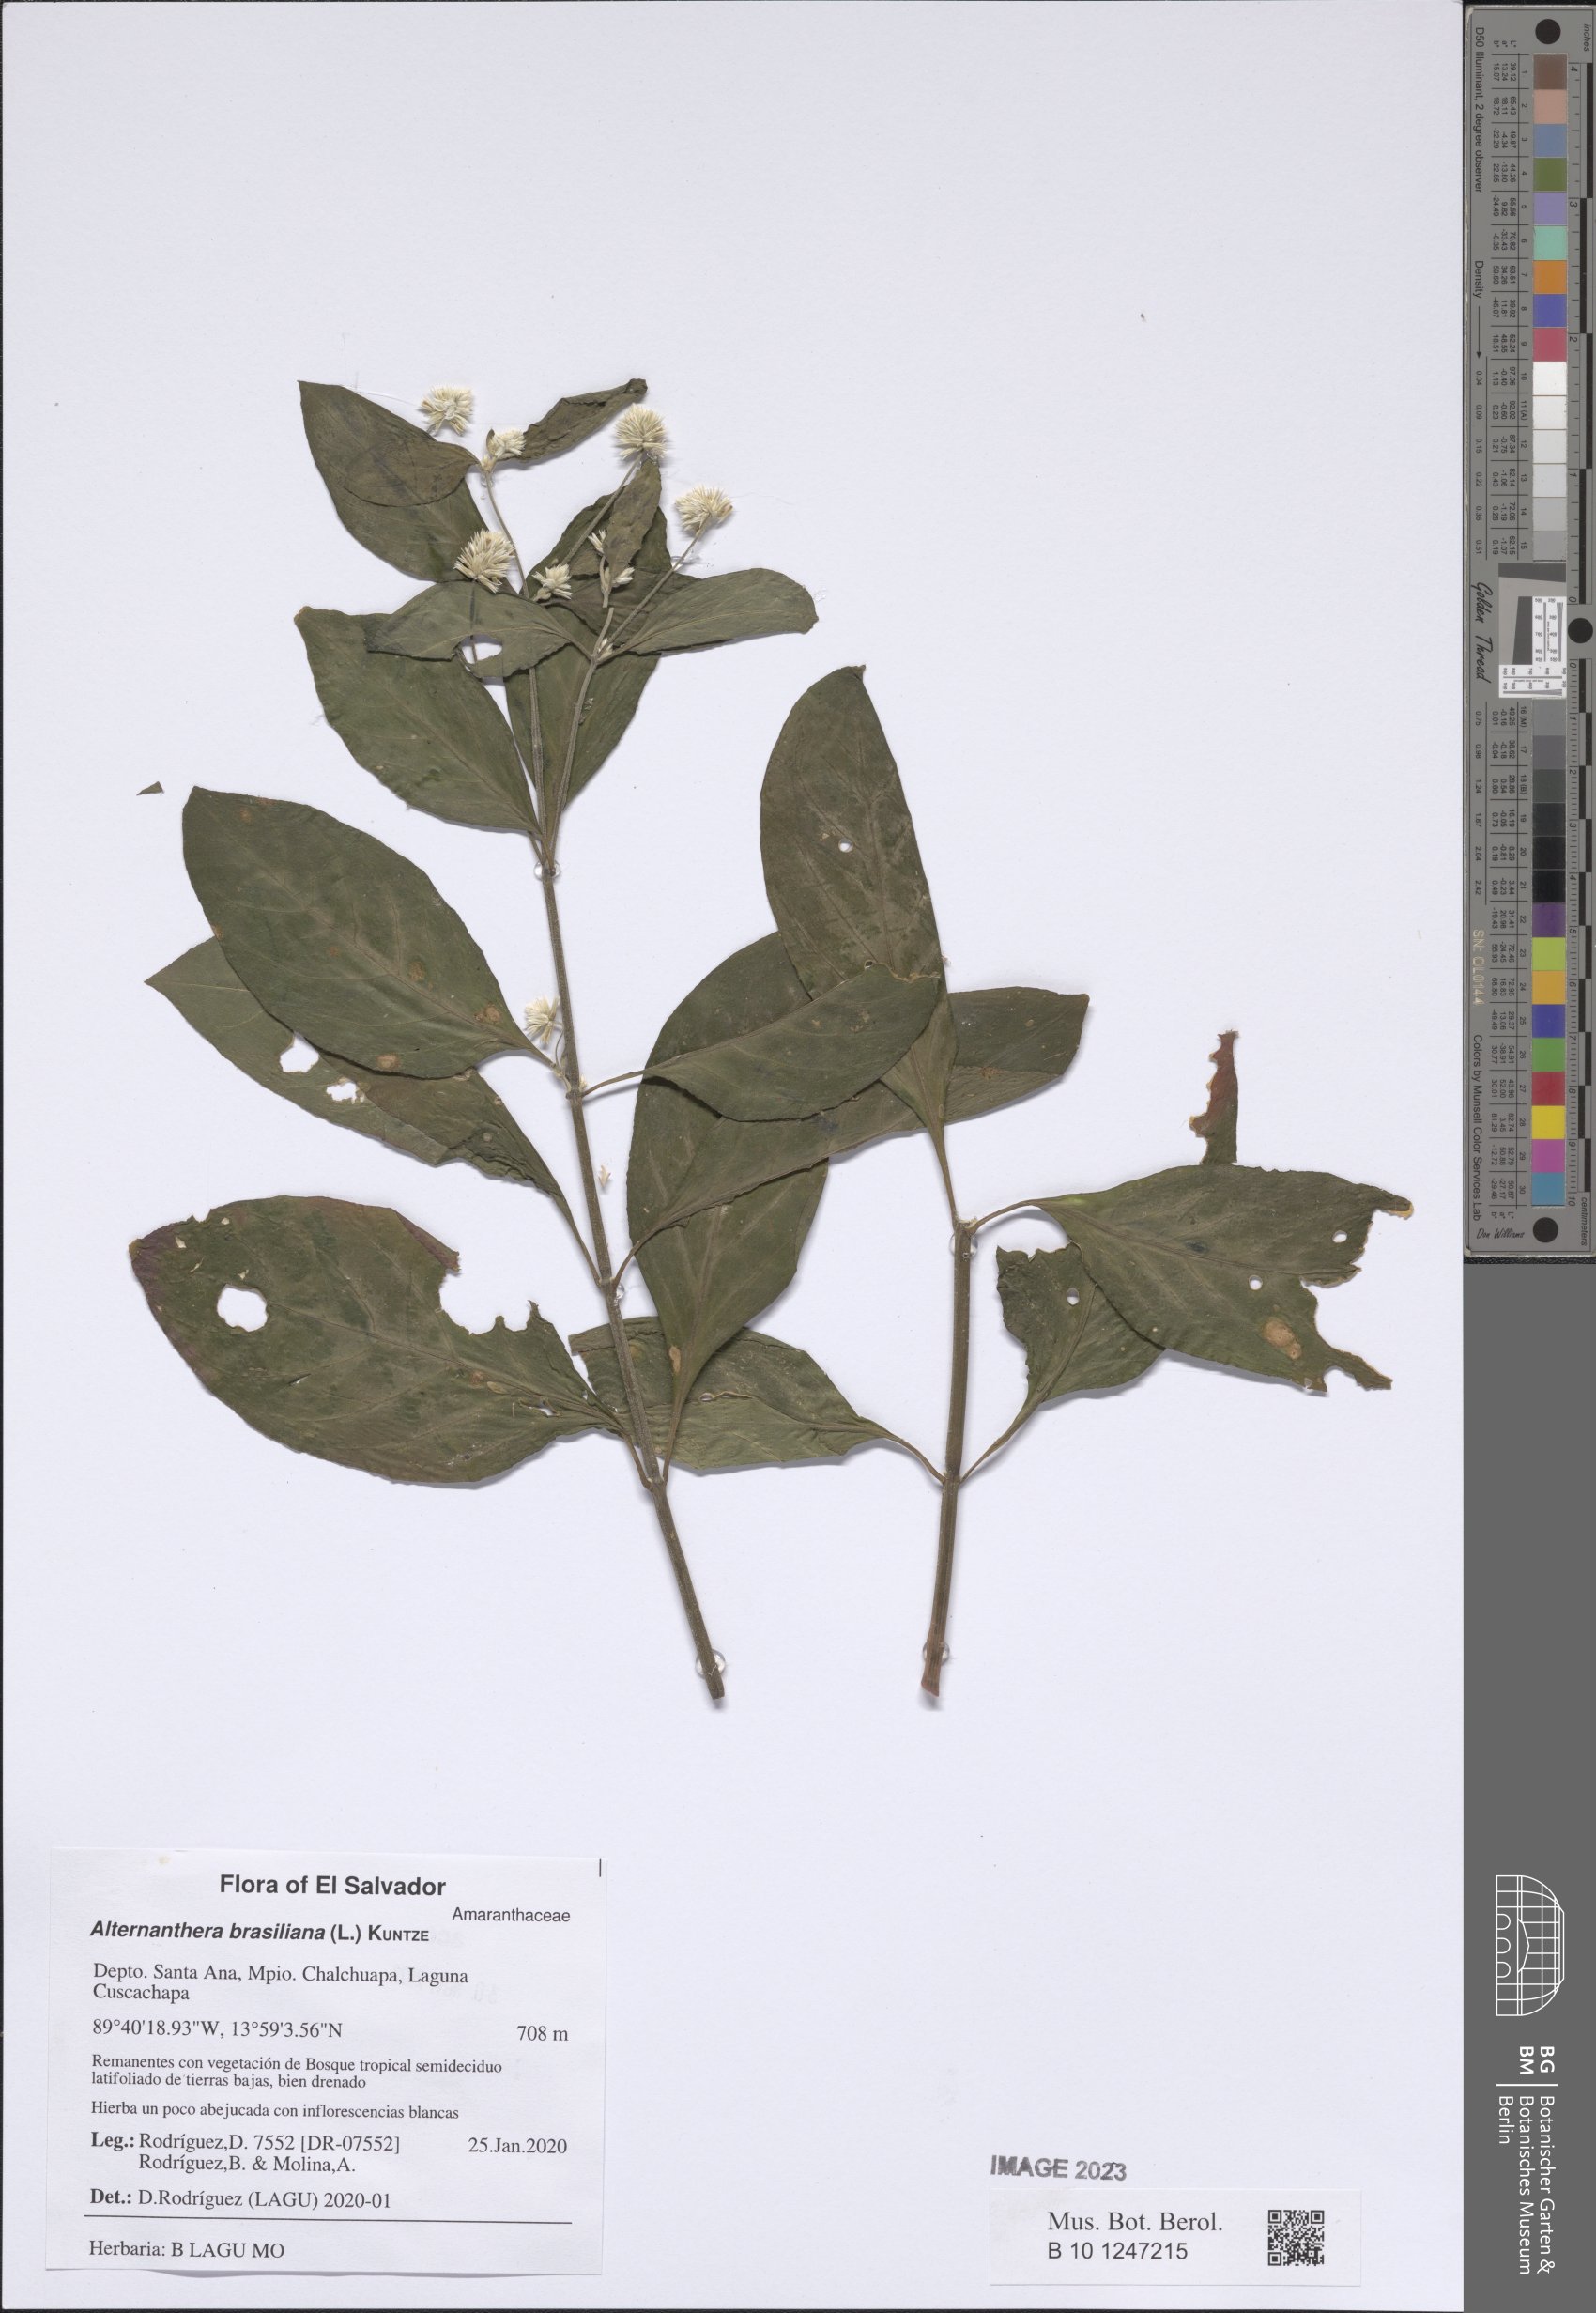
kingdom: Plantae
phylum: Tracheophyta
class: Magnoliopsida
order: Caryophyllales
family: Amaranthaceae
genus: Alternanthera
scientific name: Alternanthera brasiliana
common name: Brazilian joyweed
